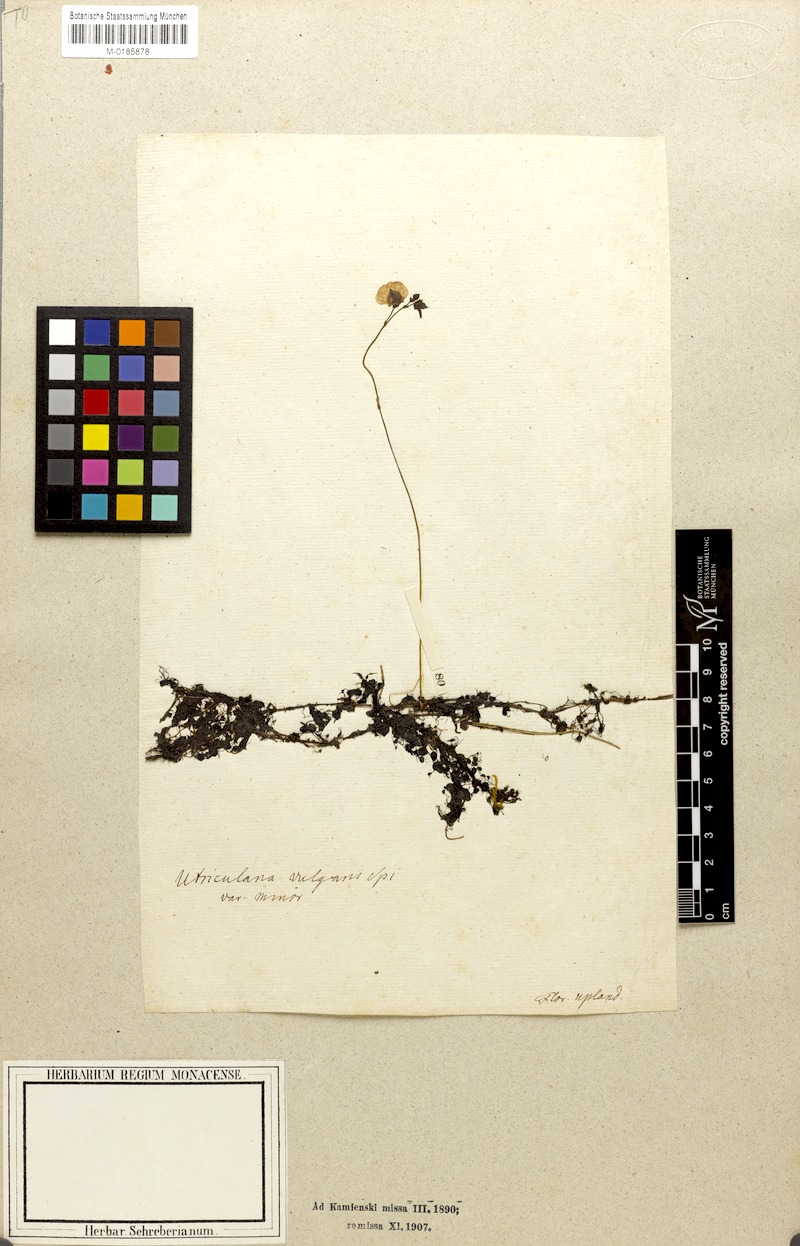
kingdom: Plantae
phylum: Tracheophyta
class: Magnoliopsida
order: Lamiales
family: Lentibulariaceae
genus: Utricularia
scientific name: Utricularia vulgaris
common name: Greater bladderwort
